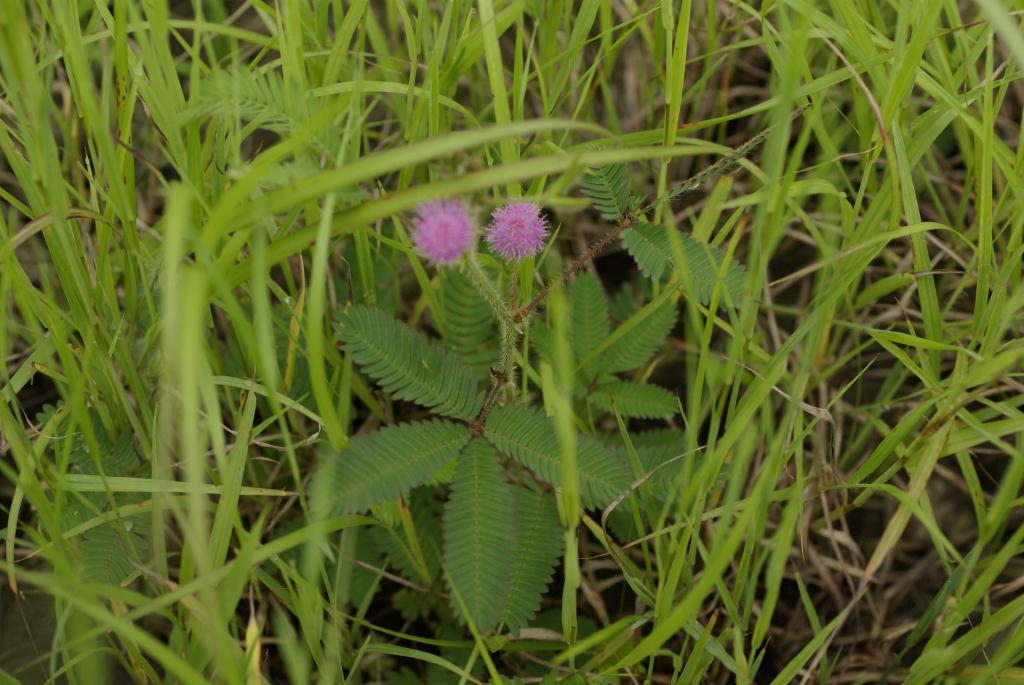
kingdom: Plantae
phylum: Tracheophyta
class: Magnoliopsida
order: Fabales
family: Fabaceae
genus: Mimosa
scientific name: Mimosa pudica
